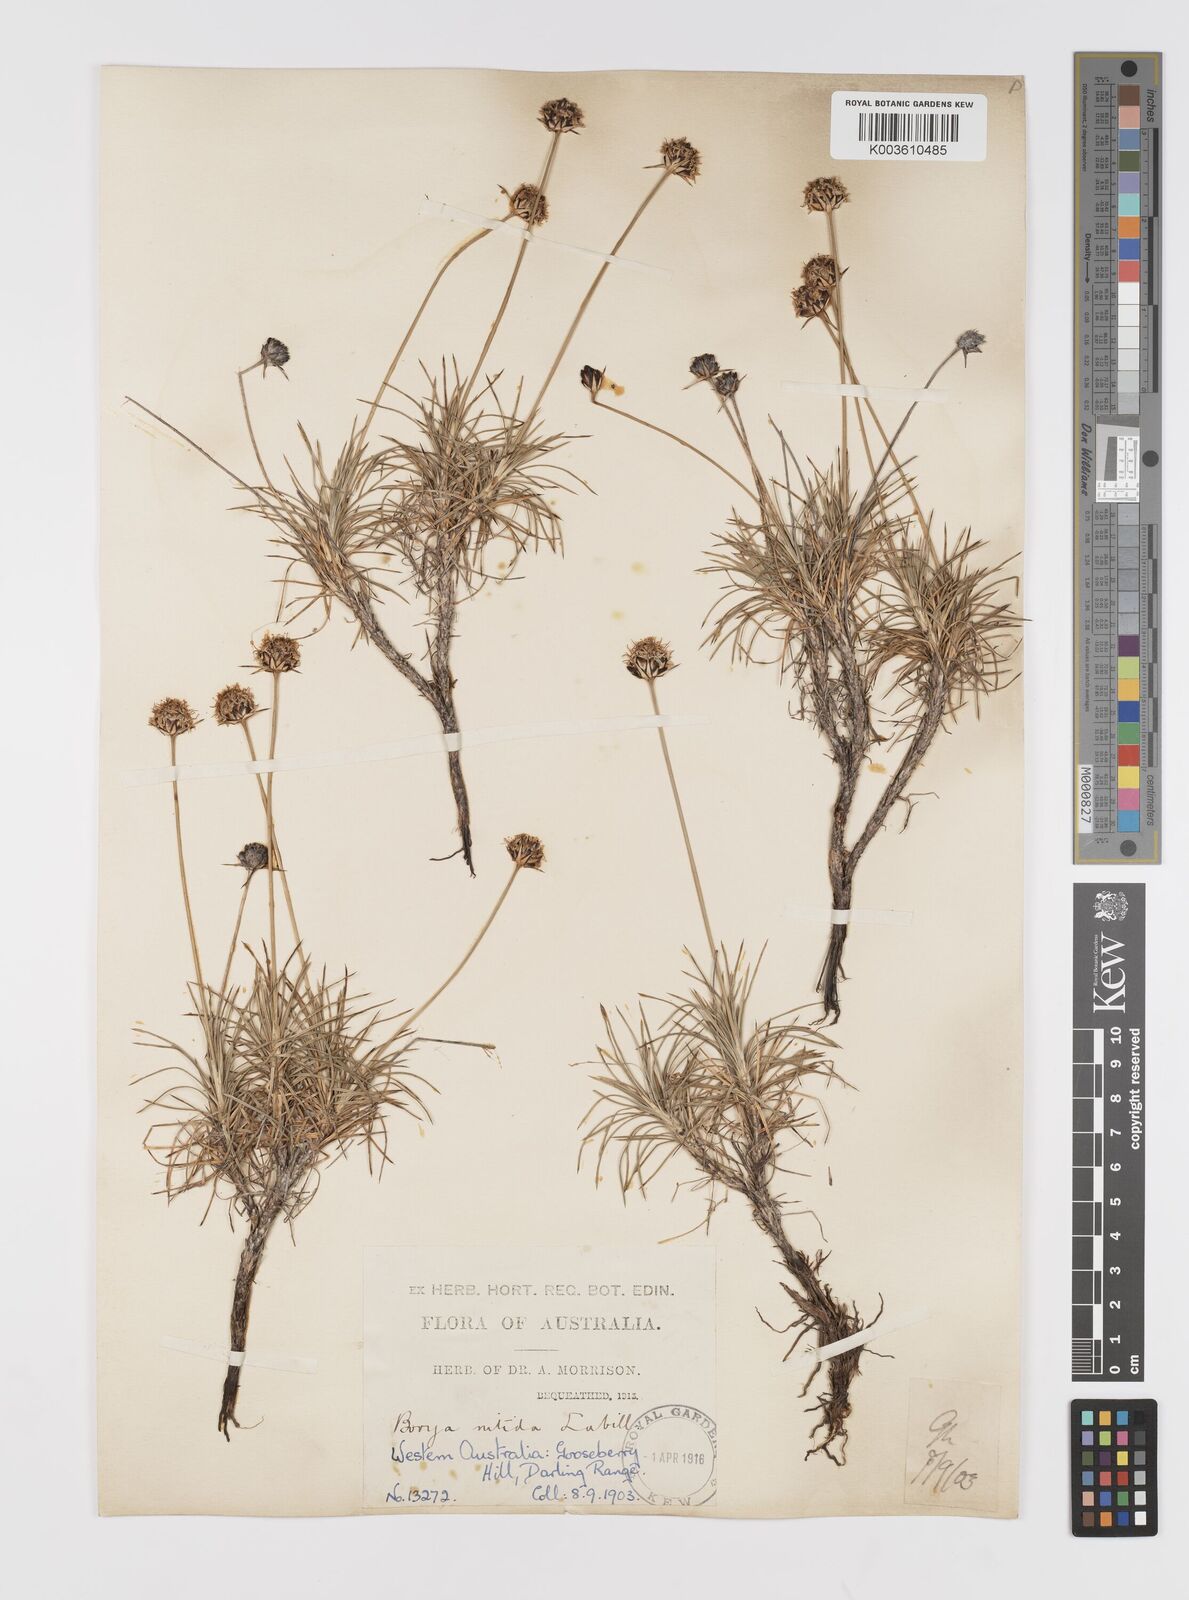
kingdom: Plantae
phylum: Tracheophyta
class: Liliopsida
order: Asparagales
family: Boryaceae
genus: Borya
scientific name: Borya nitida
